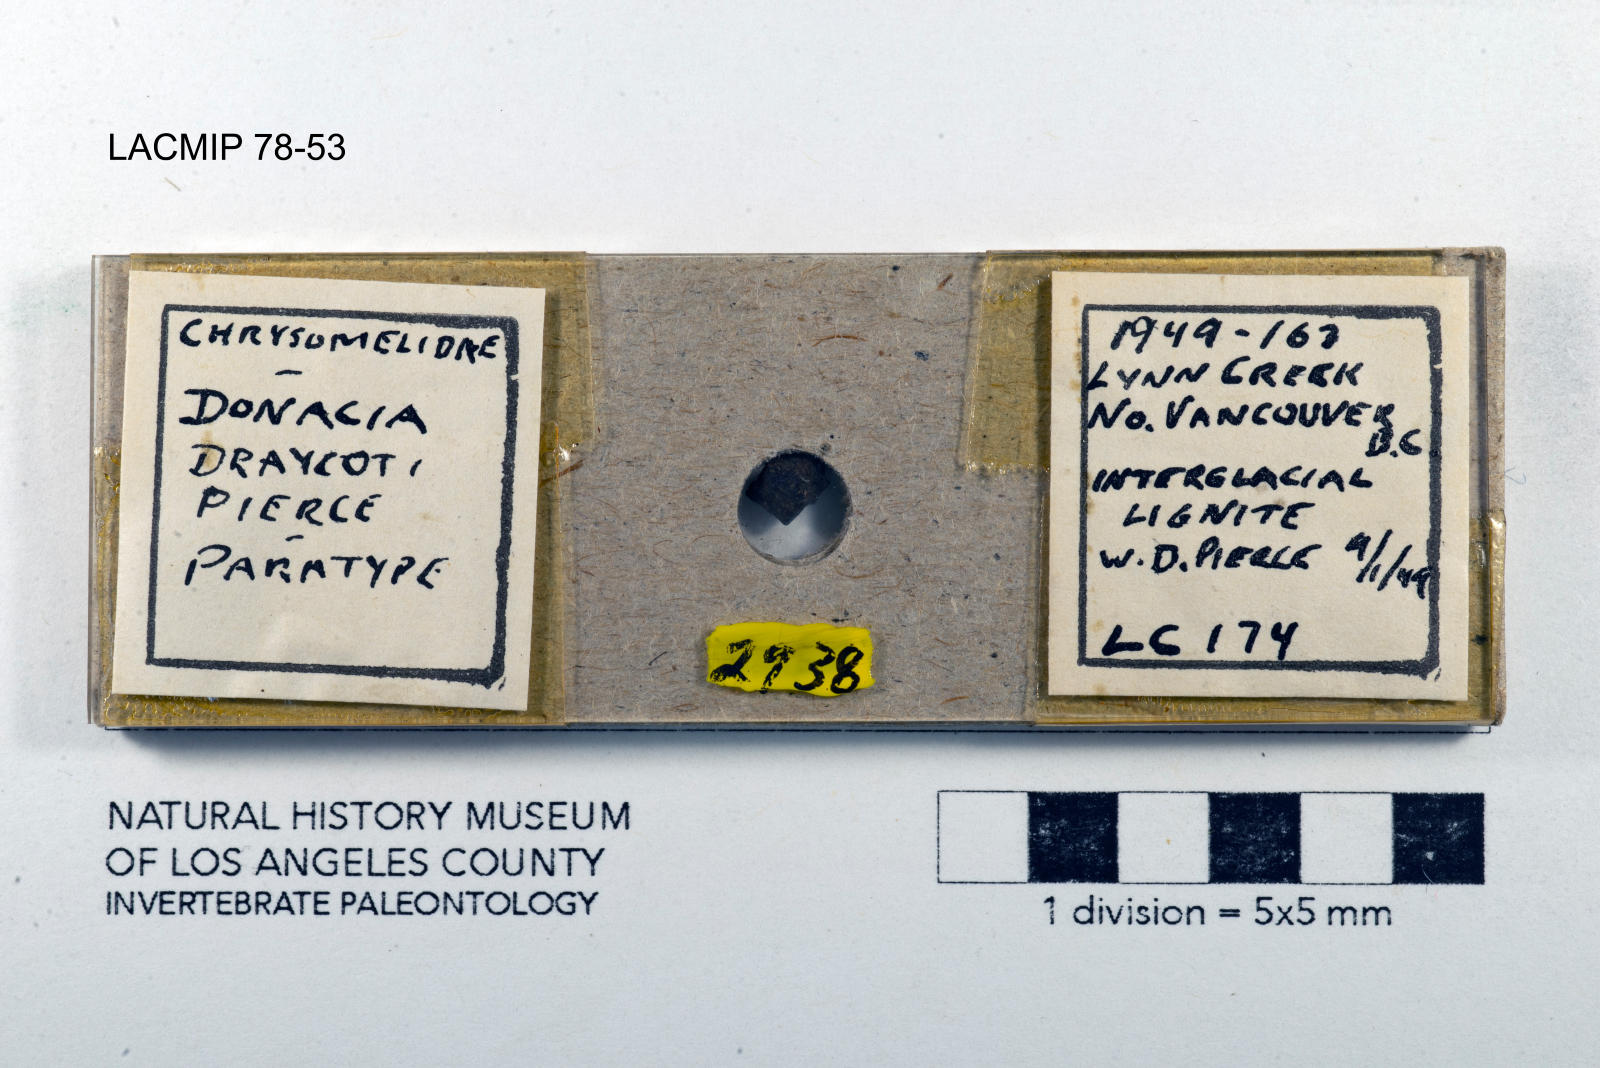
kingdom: Animalia
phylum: Arthropoda
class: Insecta
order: Coleoptera
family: Chrysomelidae
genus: Donacia
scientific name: Donacia draycoti
